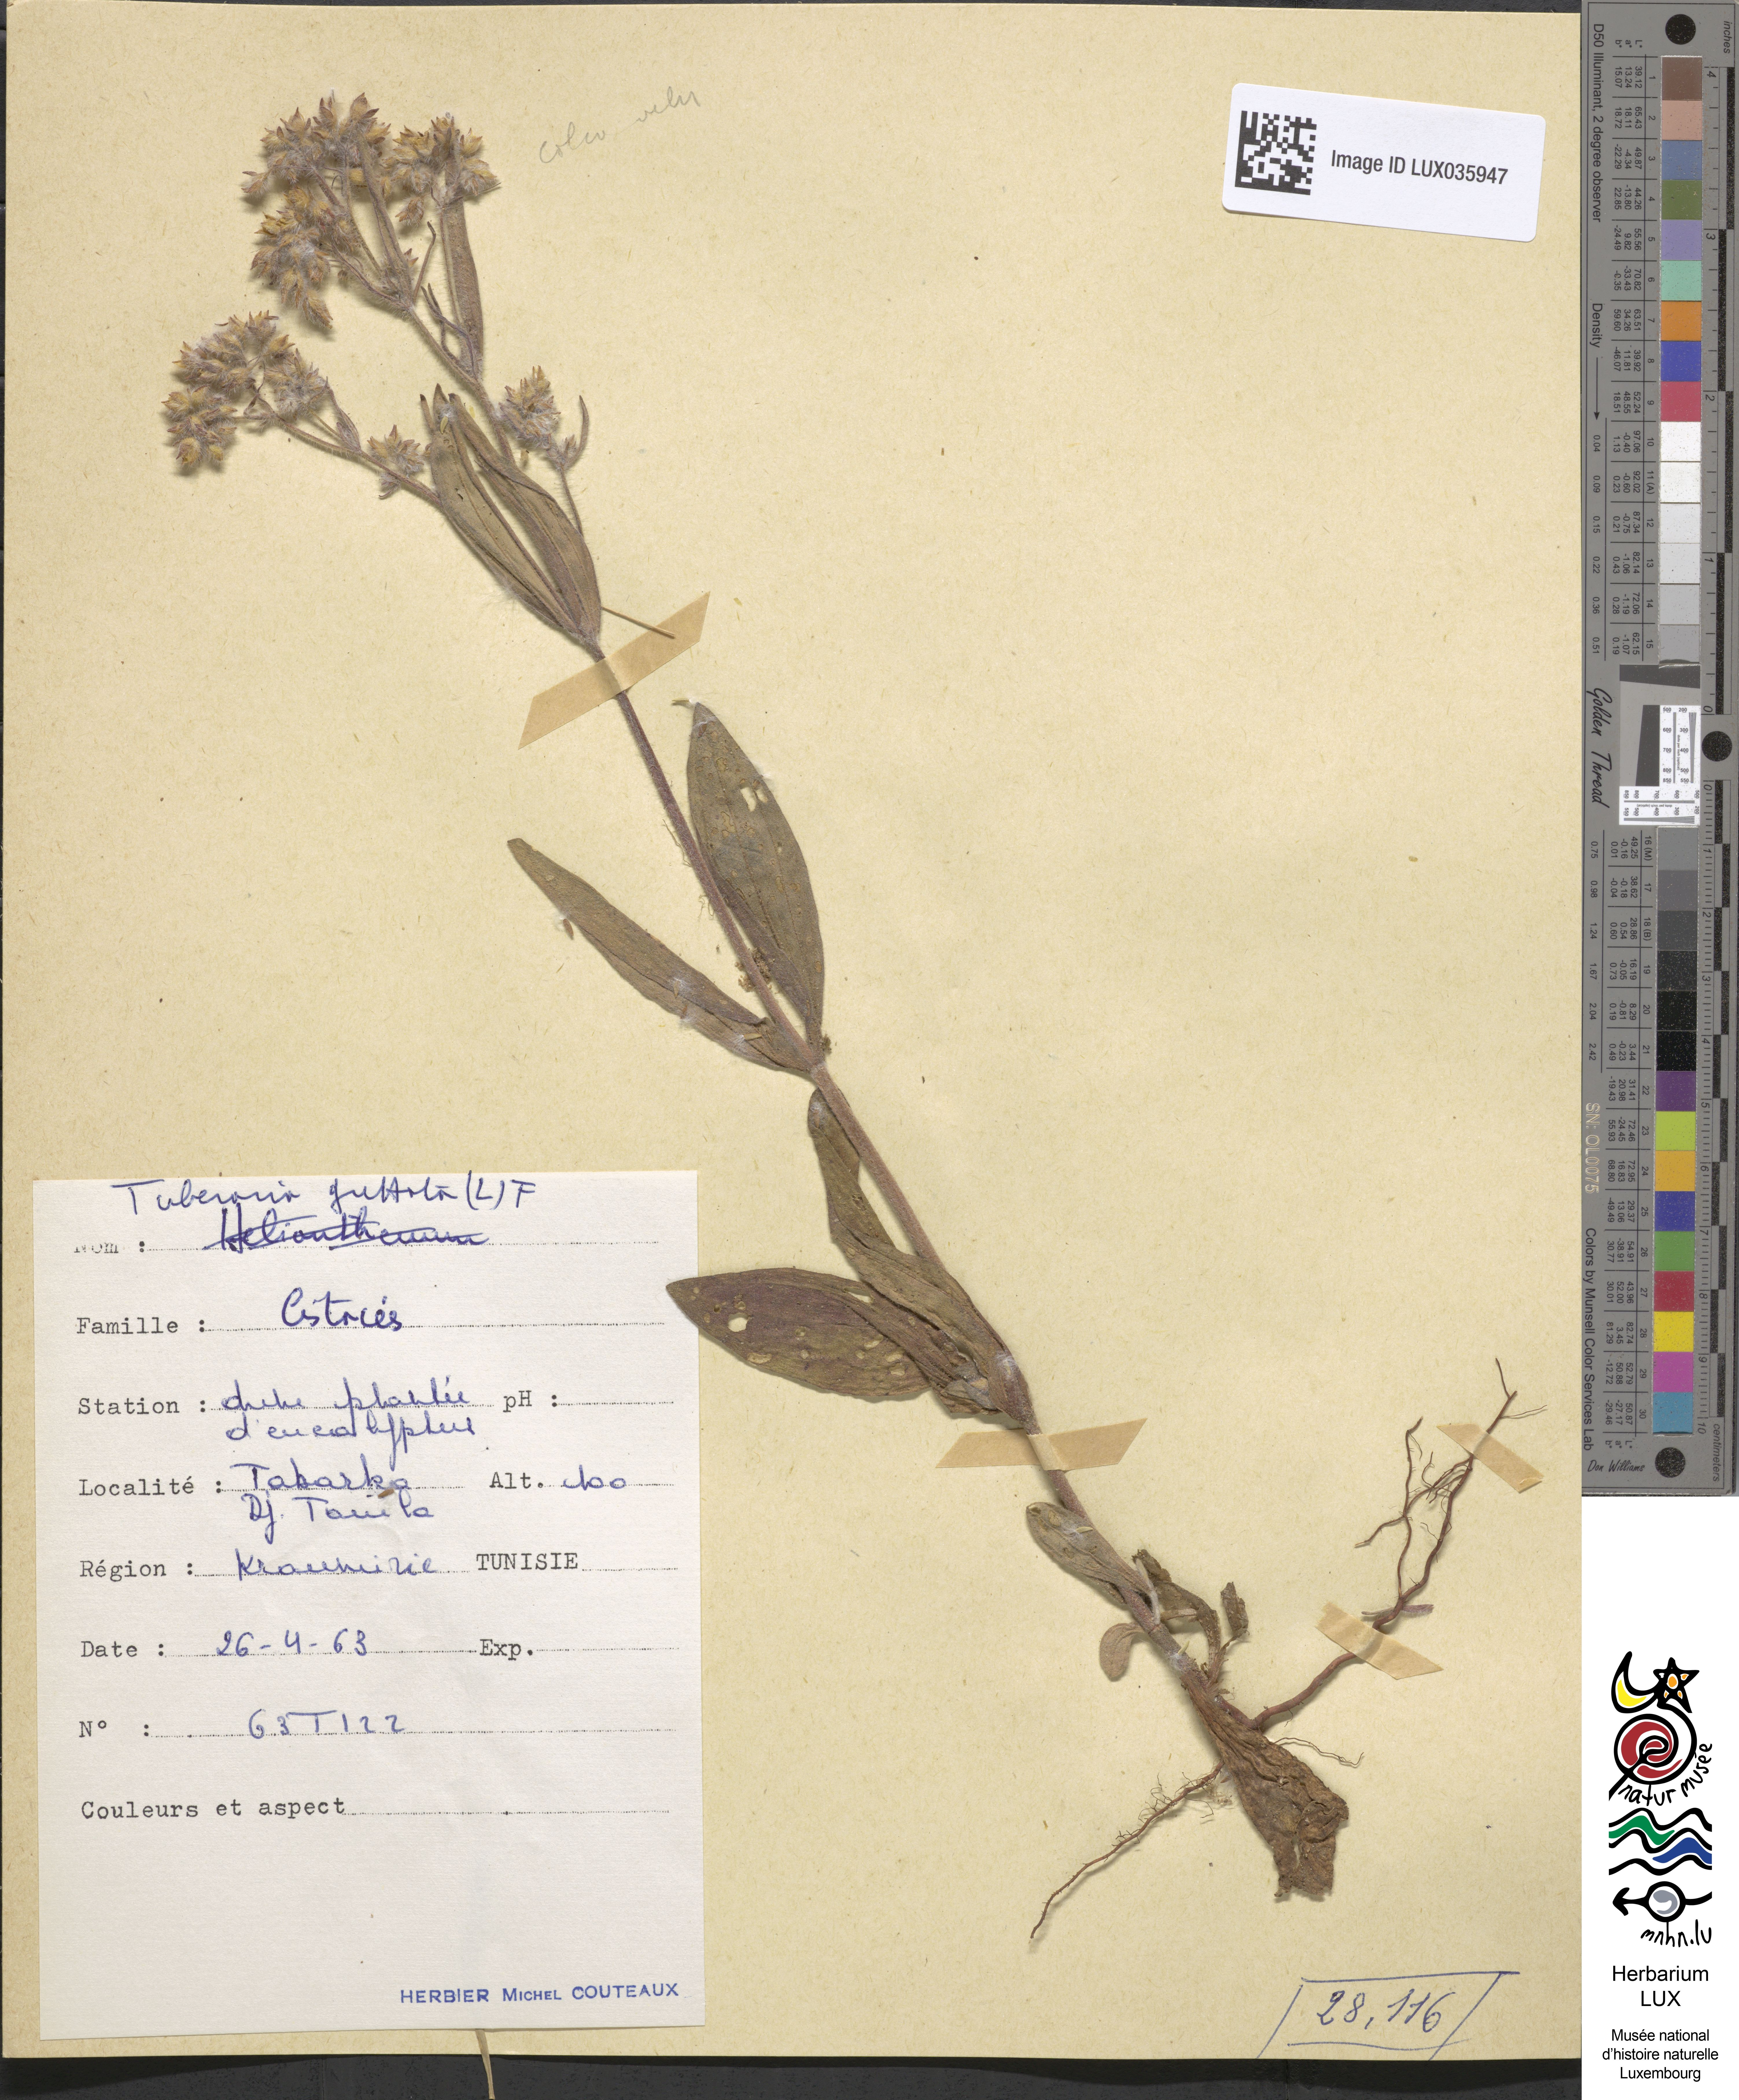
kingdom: Plantae
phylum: Tracheophyta
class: Magnoliopsida
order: Malvales
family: Cistaceae
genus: Tuberaria
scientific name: Tuberaria guttata
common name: Spotted rock-rose
